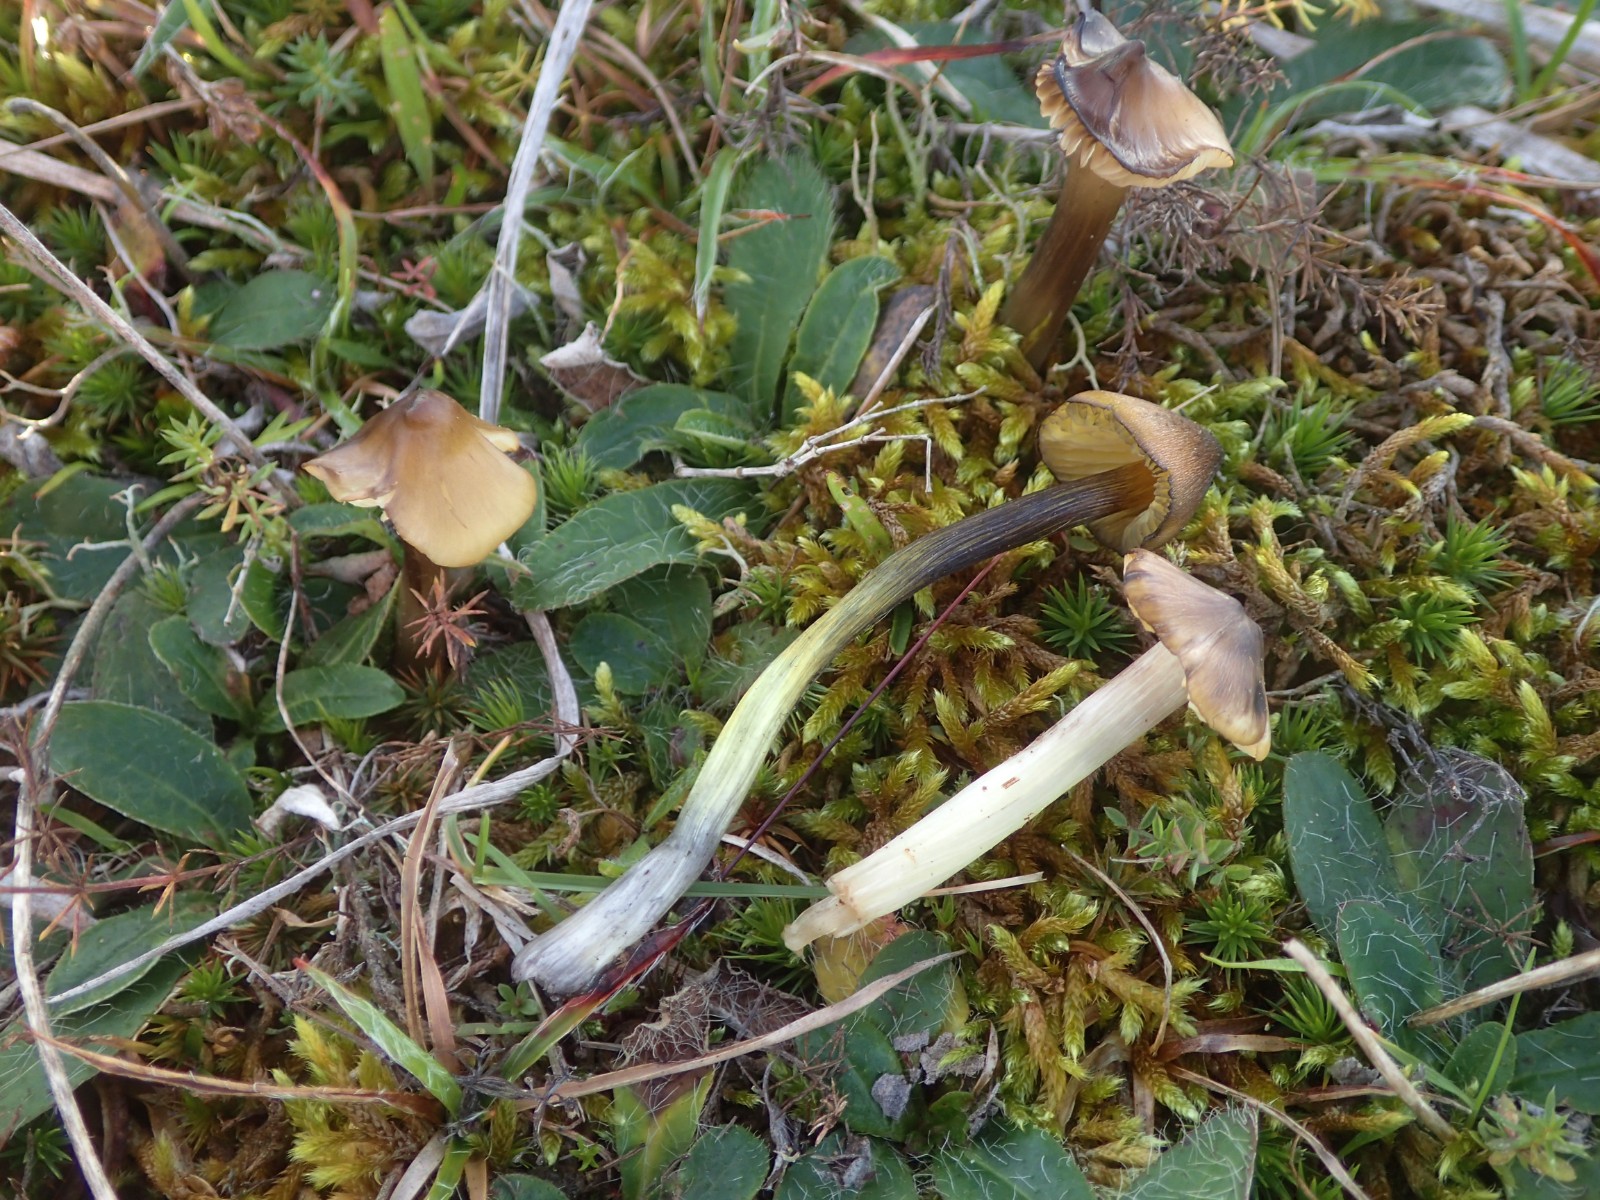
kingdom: Fungi
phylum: Basidiomycota
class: Agaricomycetes
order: Agaricales
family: Hygrophoraceae
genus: Hygrocybe
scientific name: Hygrocybe conica
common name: oliven-vokshat
